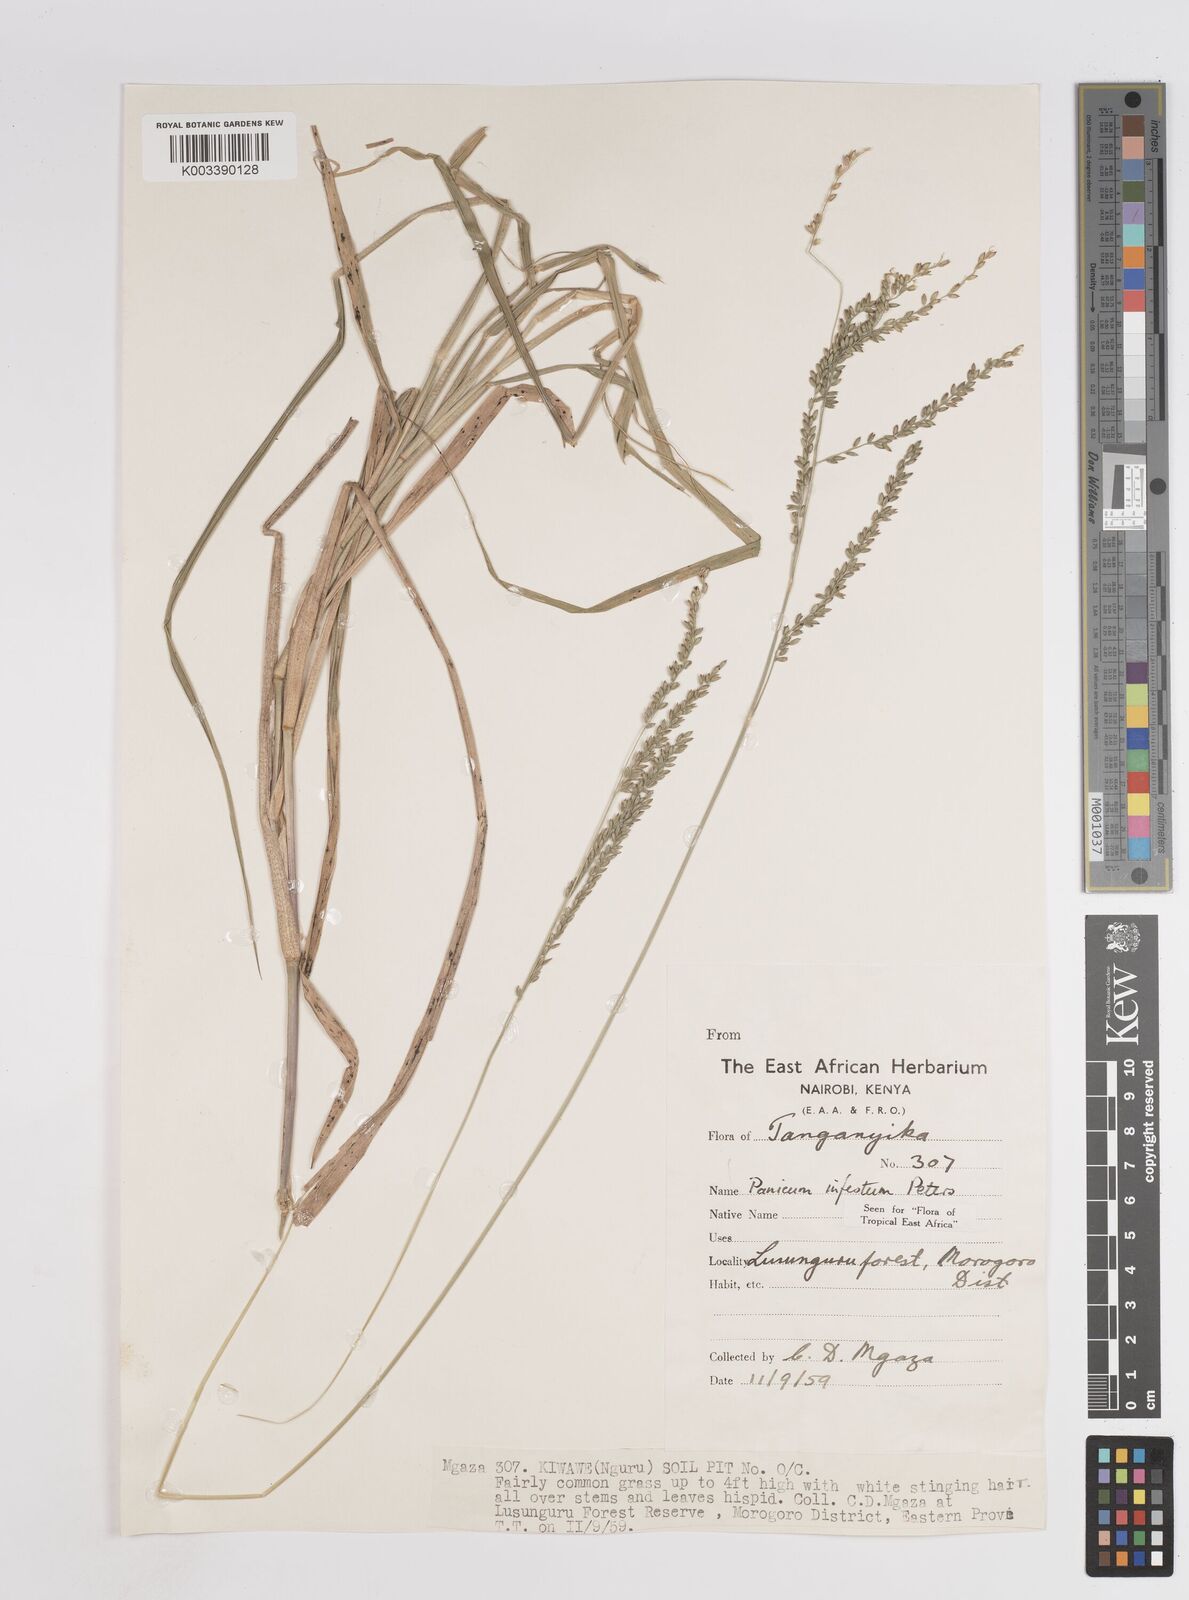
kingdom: Plantae
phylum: Tracheophyta
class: Liliopsida
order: Poales
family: Poaceae
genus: Megathyrsus
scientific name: Megathyrsus infestus
